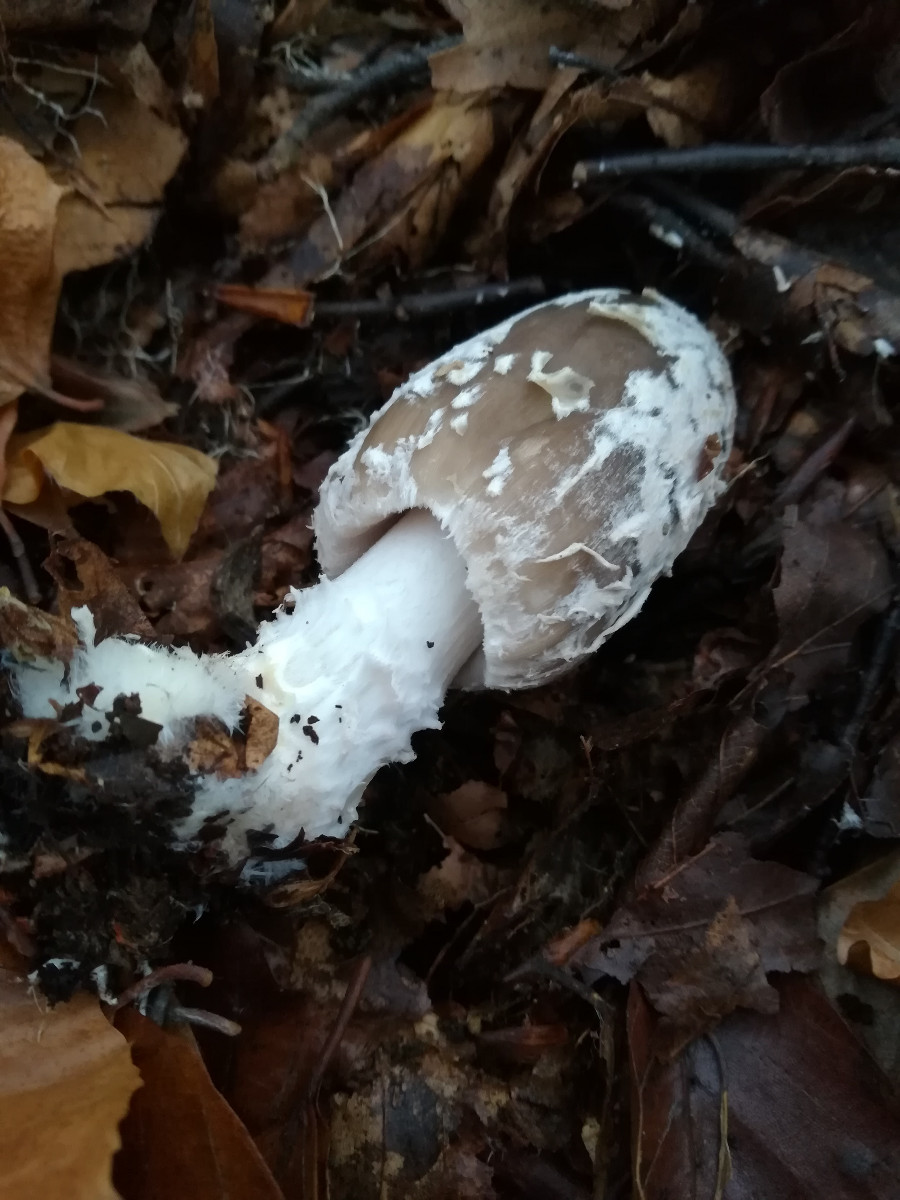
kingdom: Fungi
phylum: Basidiomycota
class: Agaricomycetes
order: Agaricales
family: Psathyrellaceae
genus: Coprinopsis
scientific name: Coprinopsis picacea
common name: skade-blækhat
